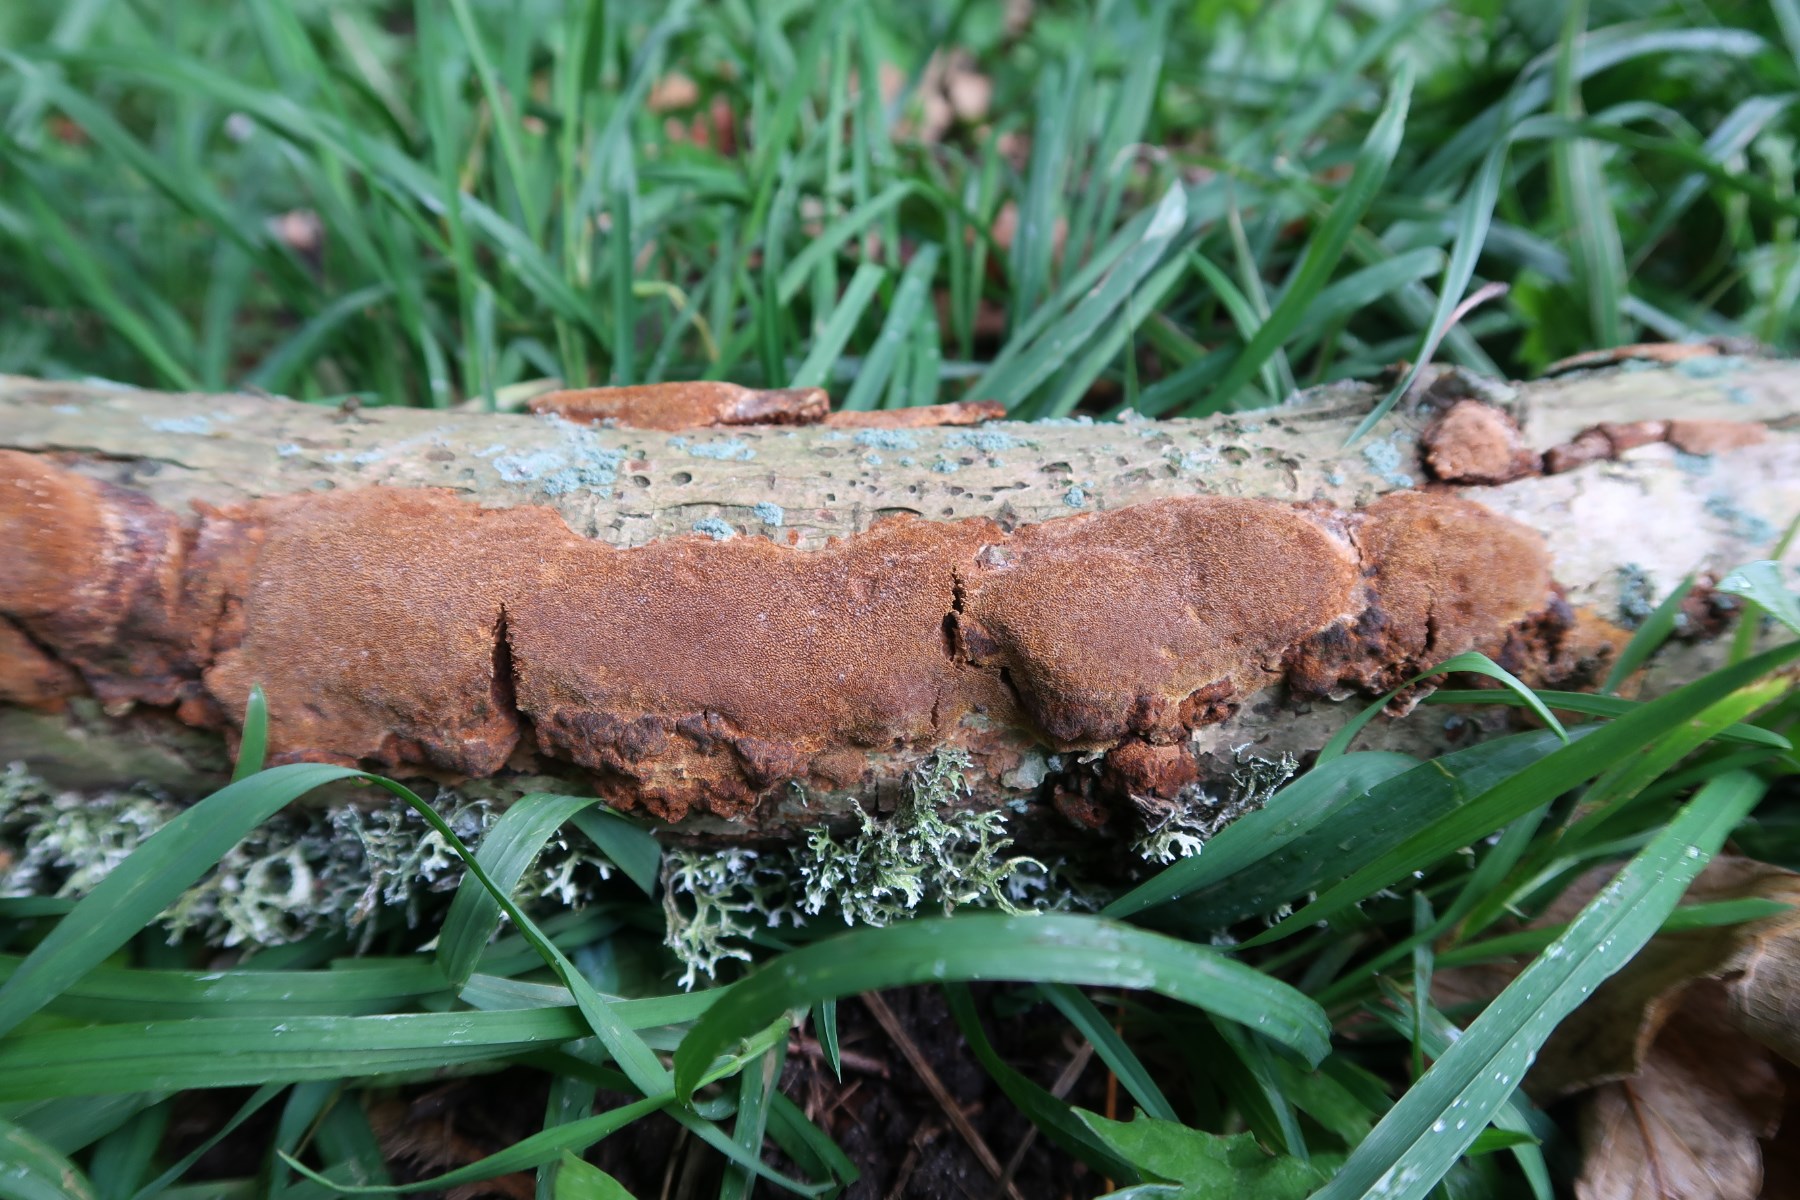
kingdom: Fungi
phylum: Basidiomycota
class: Agaricomycetes
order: Hymenochaetales
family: Hymenochaetaceae
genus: Fuscoporia
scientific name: Fuscoporia ferrea
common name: skorpe-ildporesvamp
